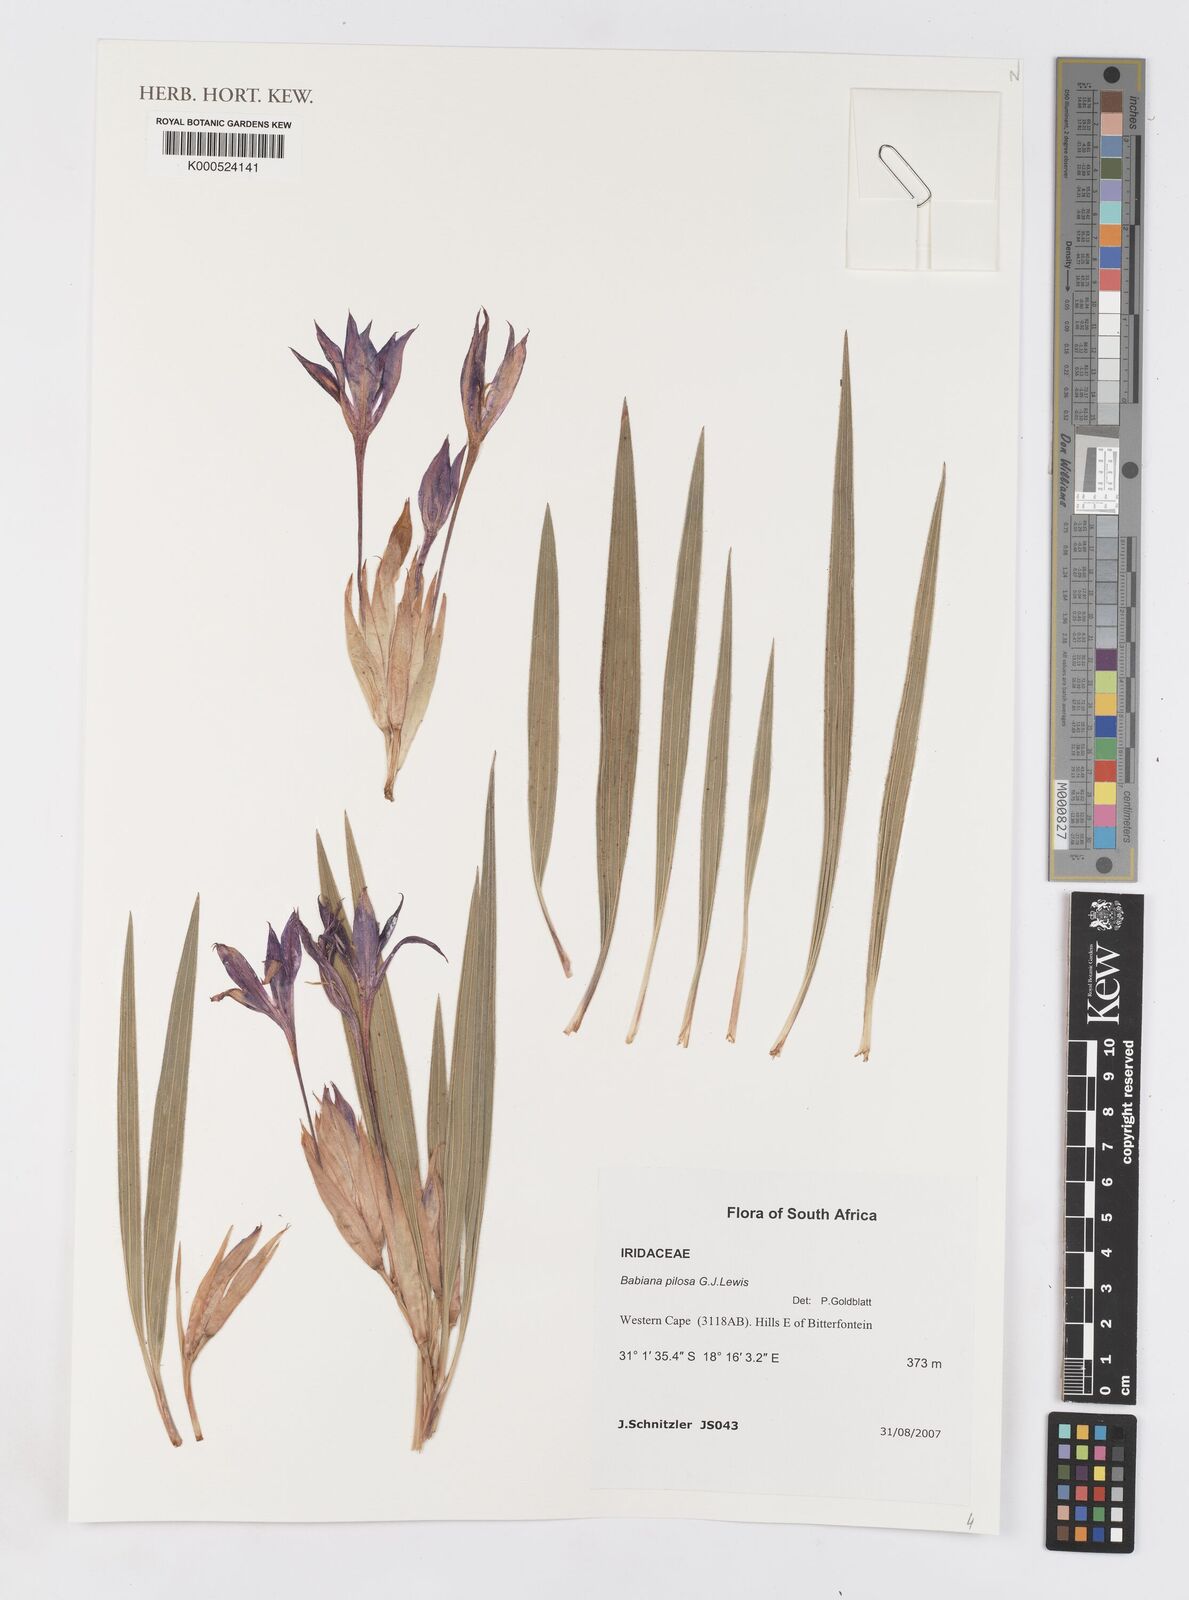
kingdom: Plantae
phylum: Tracheophyta
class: Liliopsida
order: Asparagales
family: Iridaceae
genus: Babiana
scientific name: Babiana pilosa
